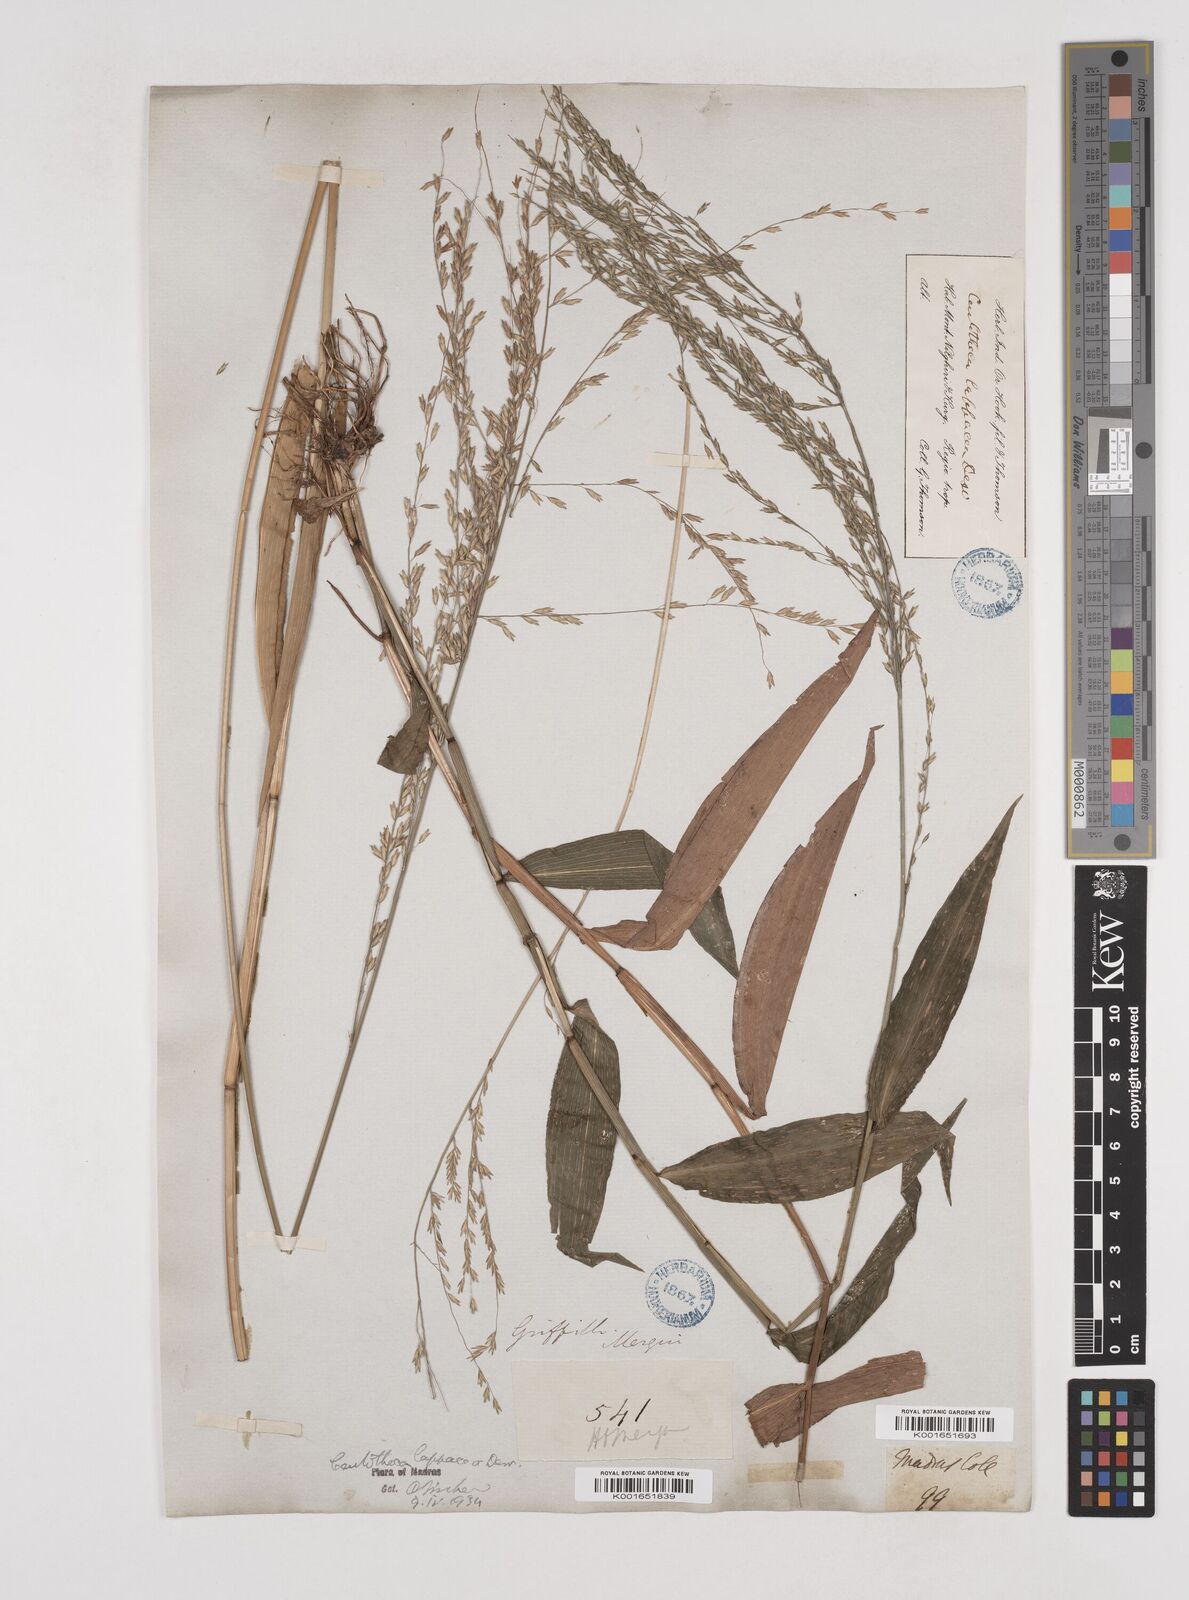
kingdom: Plantae
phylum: Tracheophyta
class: Liliopsida
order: Poales
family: Poaceae
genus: Centotheca
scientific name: Centotheca lappacea
